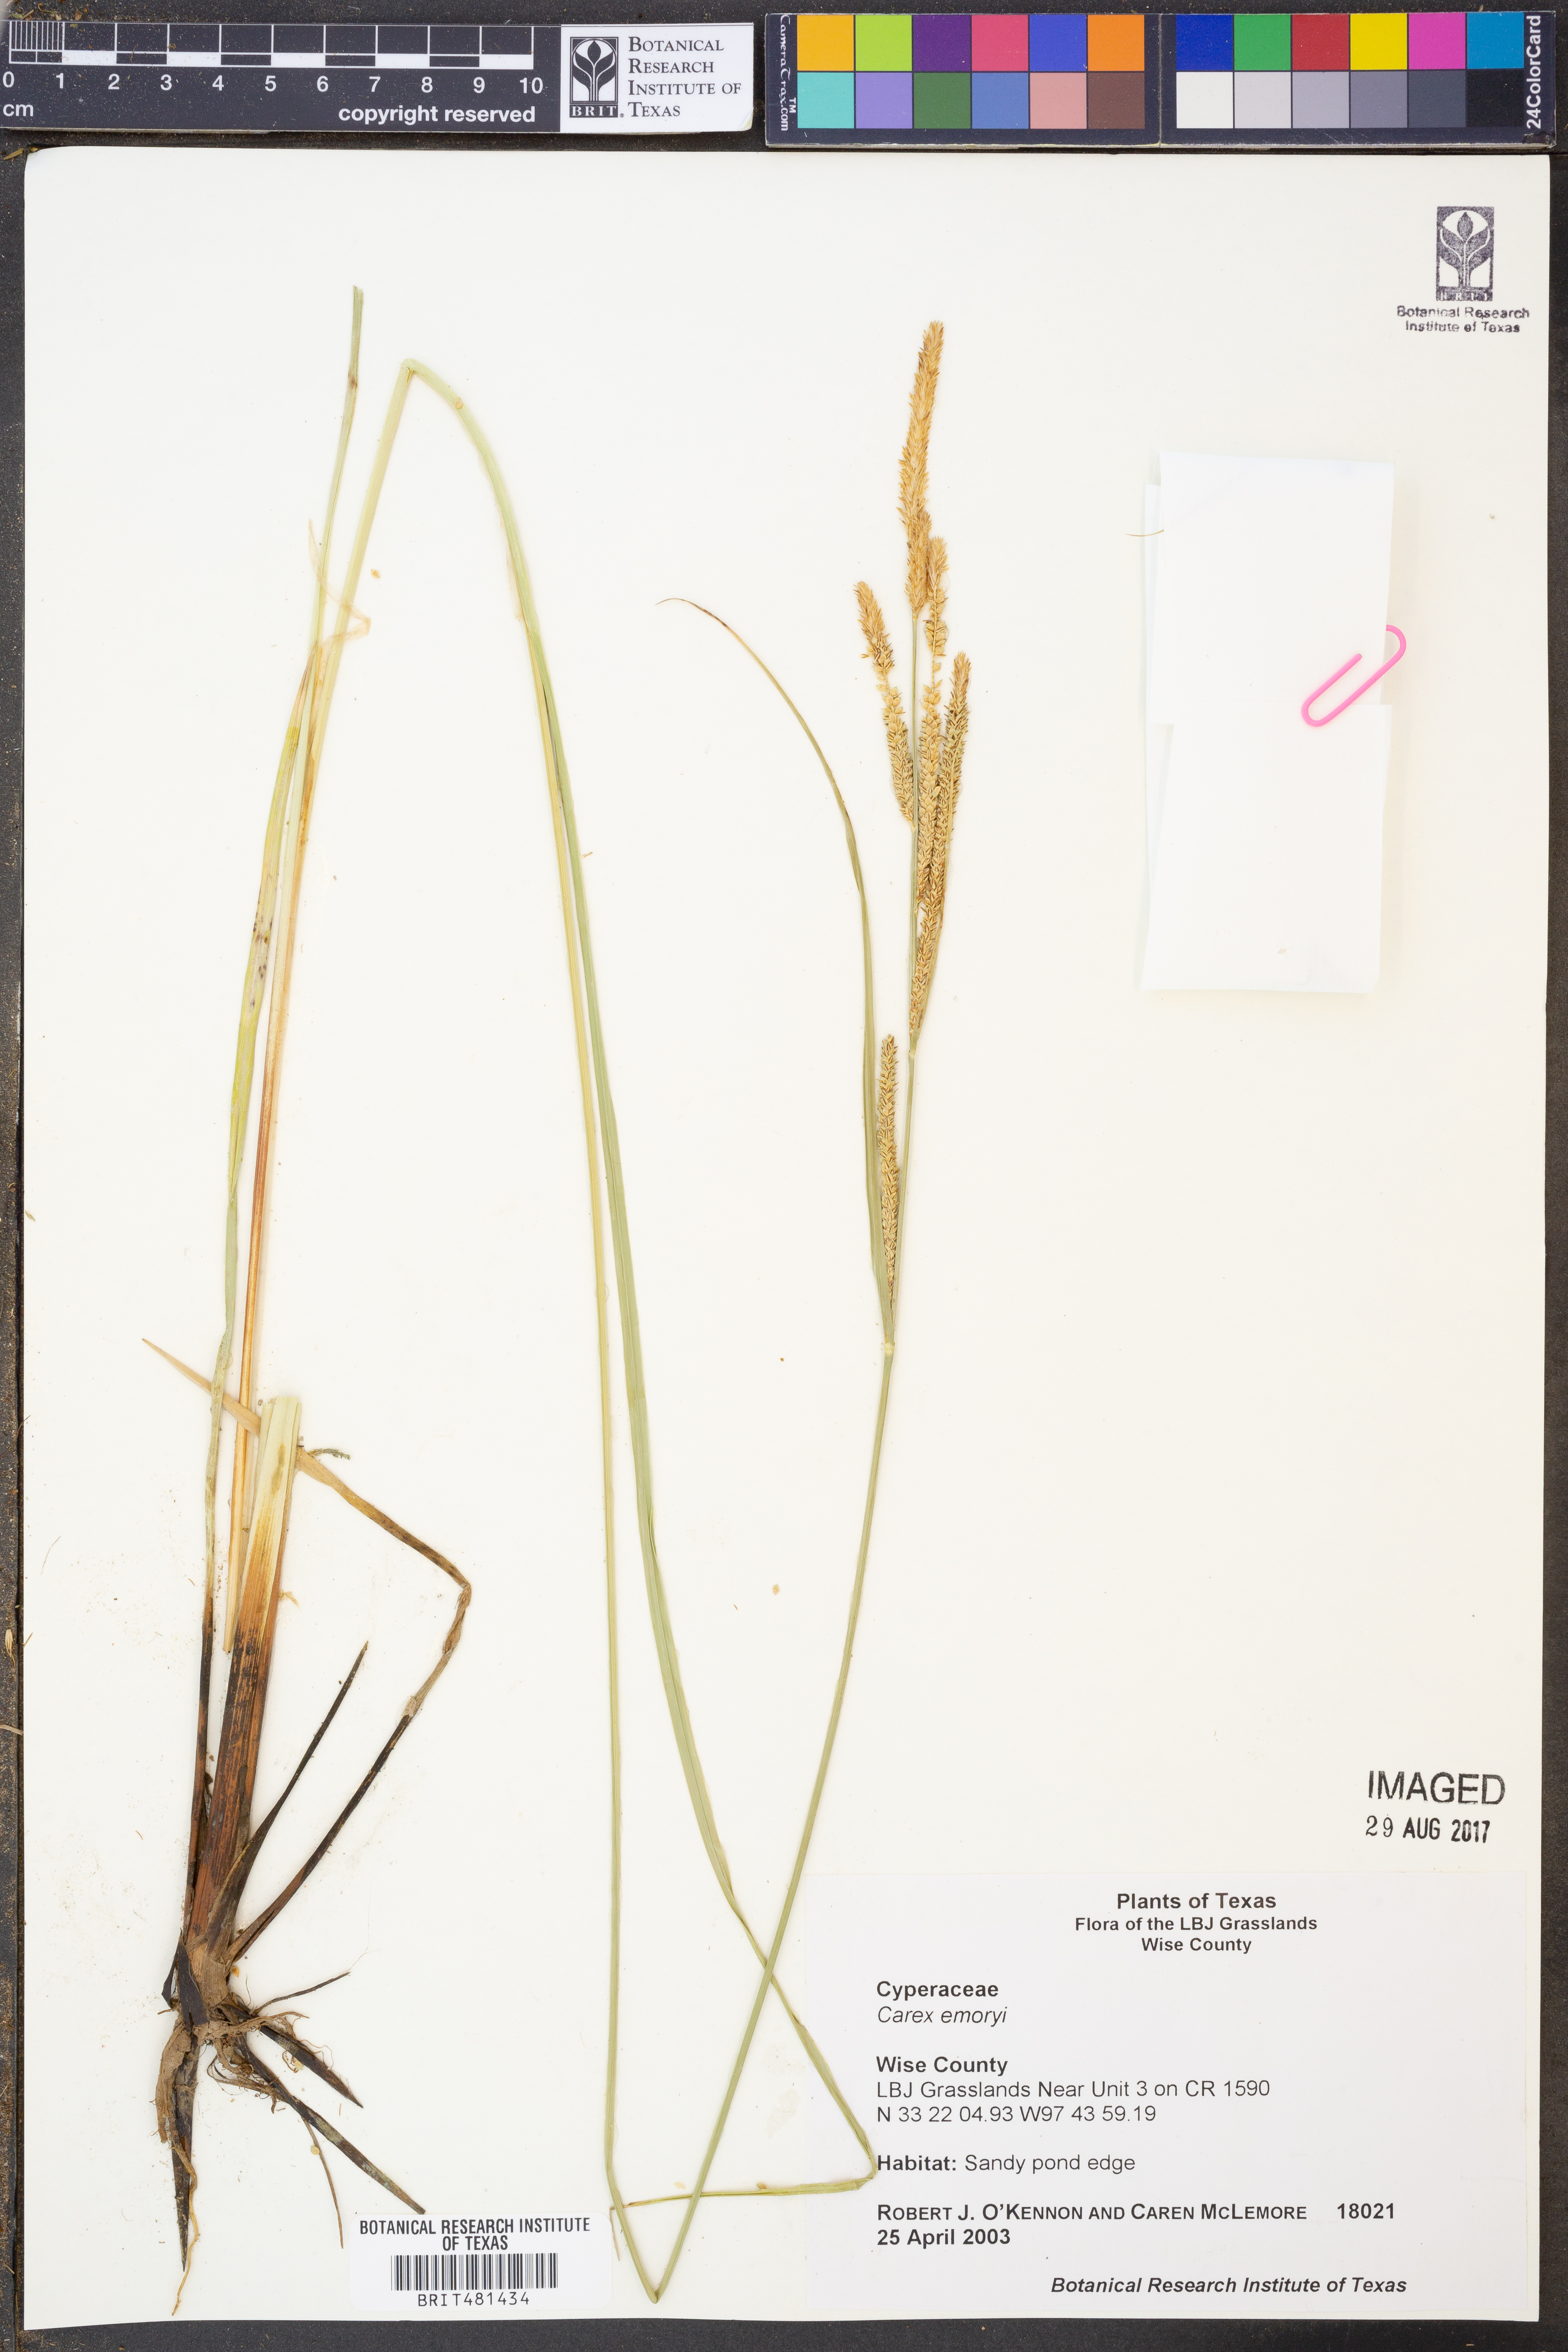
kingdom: Plantae
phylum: Tracheophyta
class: Liliopsida
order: Poales
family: Cyperaceae
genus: Carex
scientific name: Carex emoryi
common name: Emory's sedge
